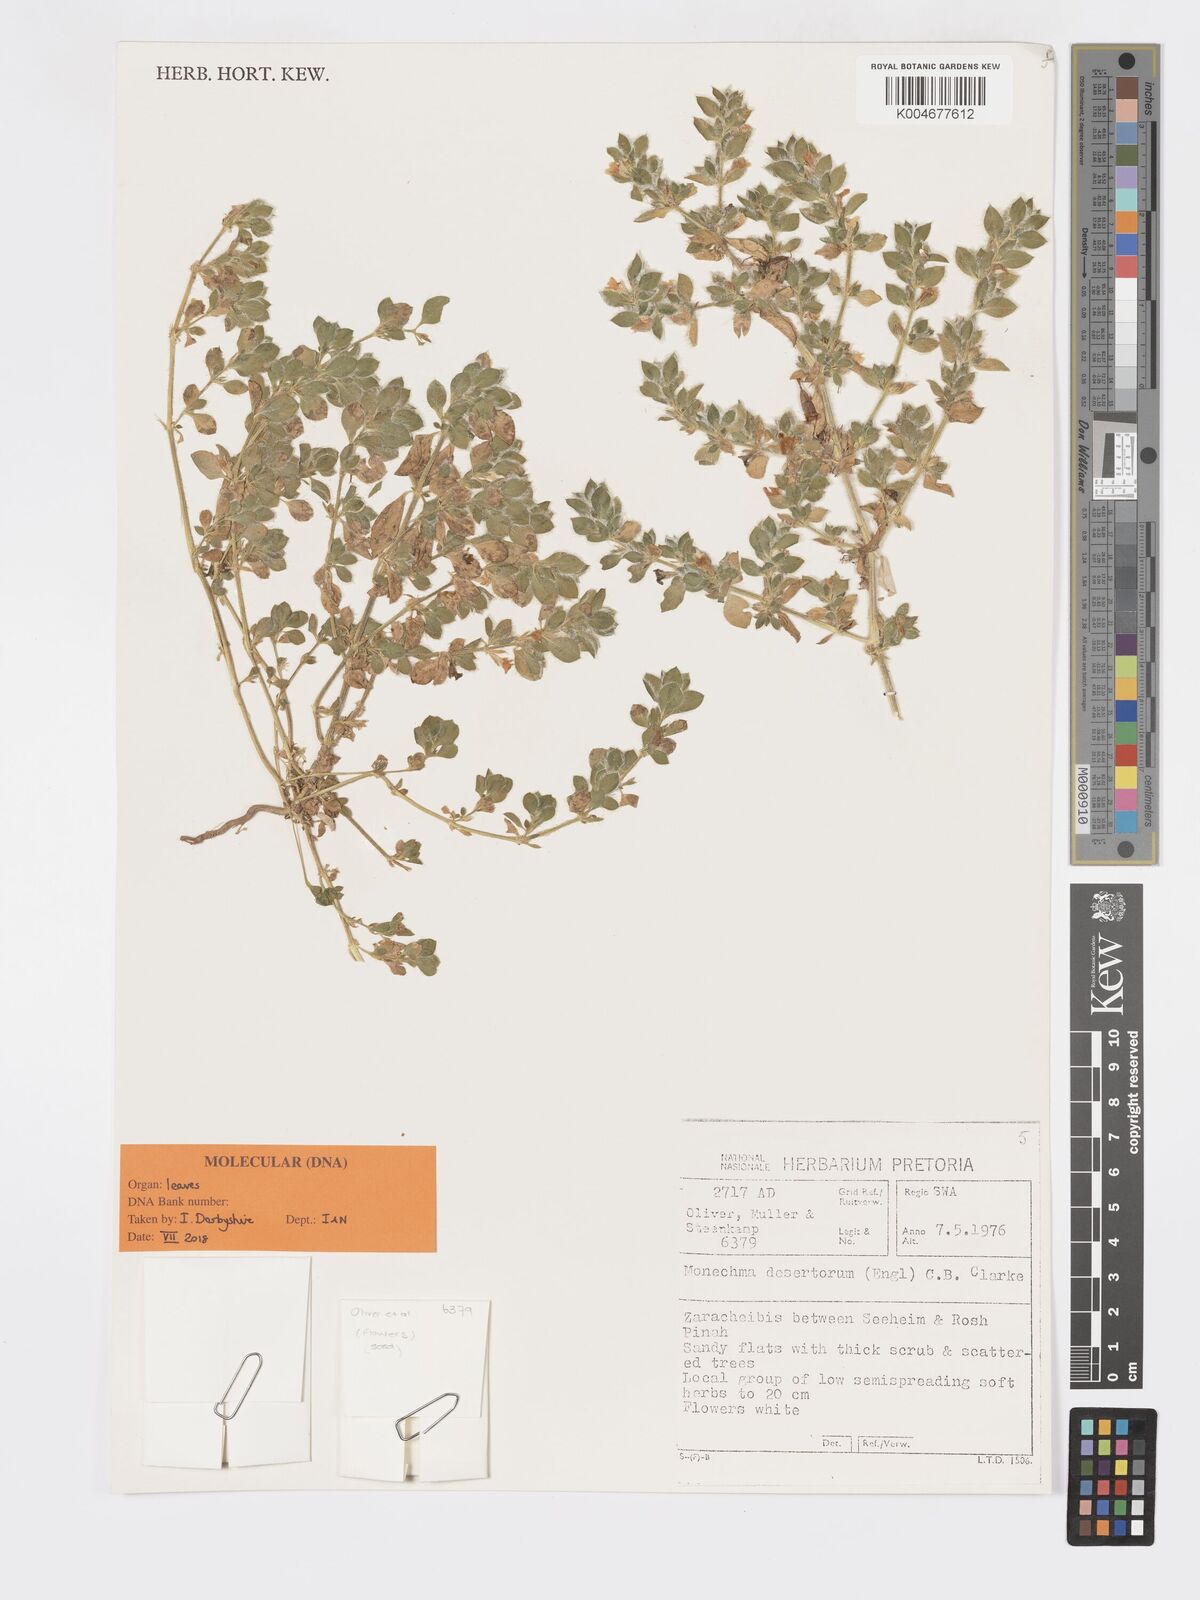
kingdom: Plantae
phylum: Tracheophyta
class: Magnoliopsida
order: Lamiales
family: Acanthaceae
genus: Pogonospermum
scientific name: Pogonospermum
